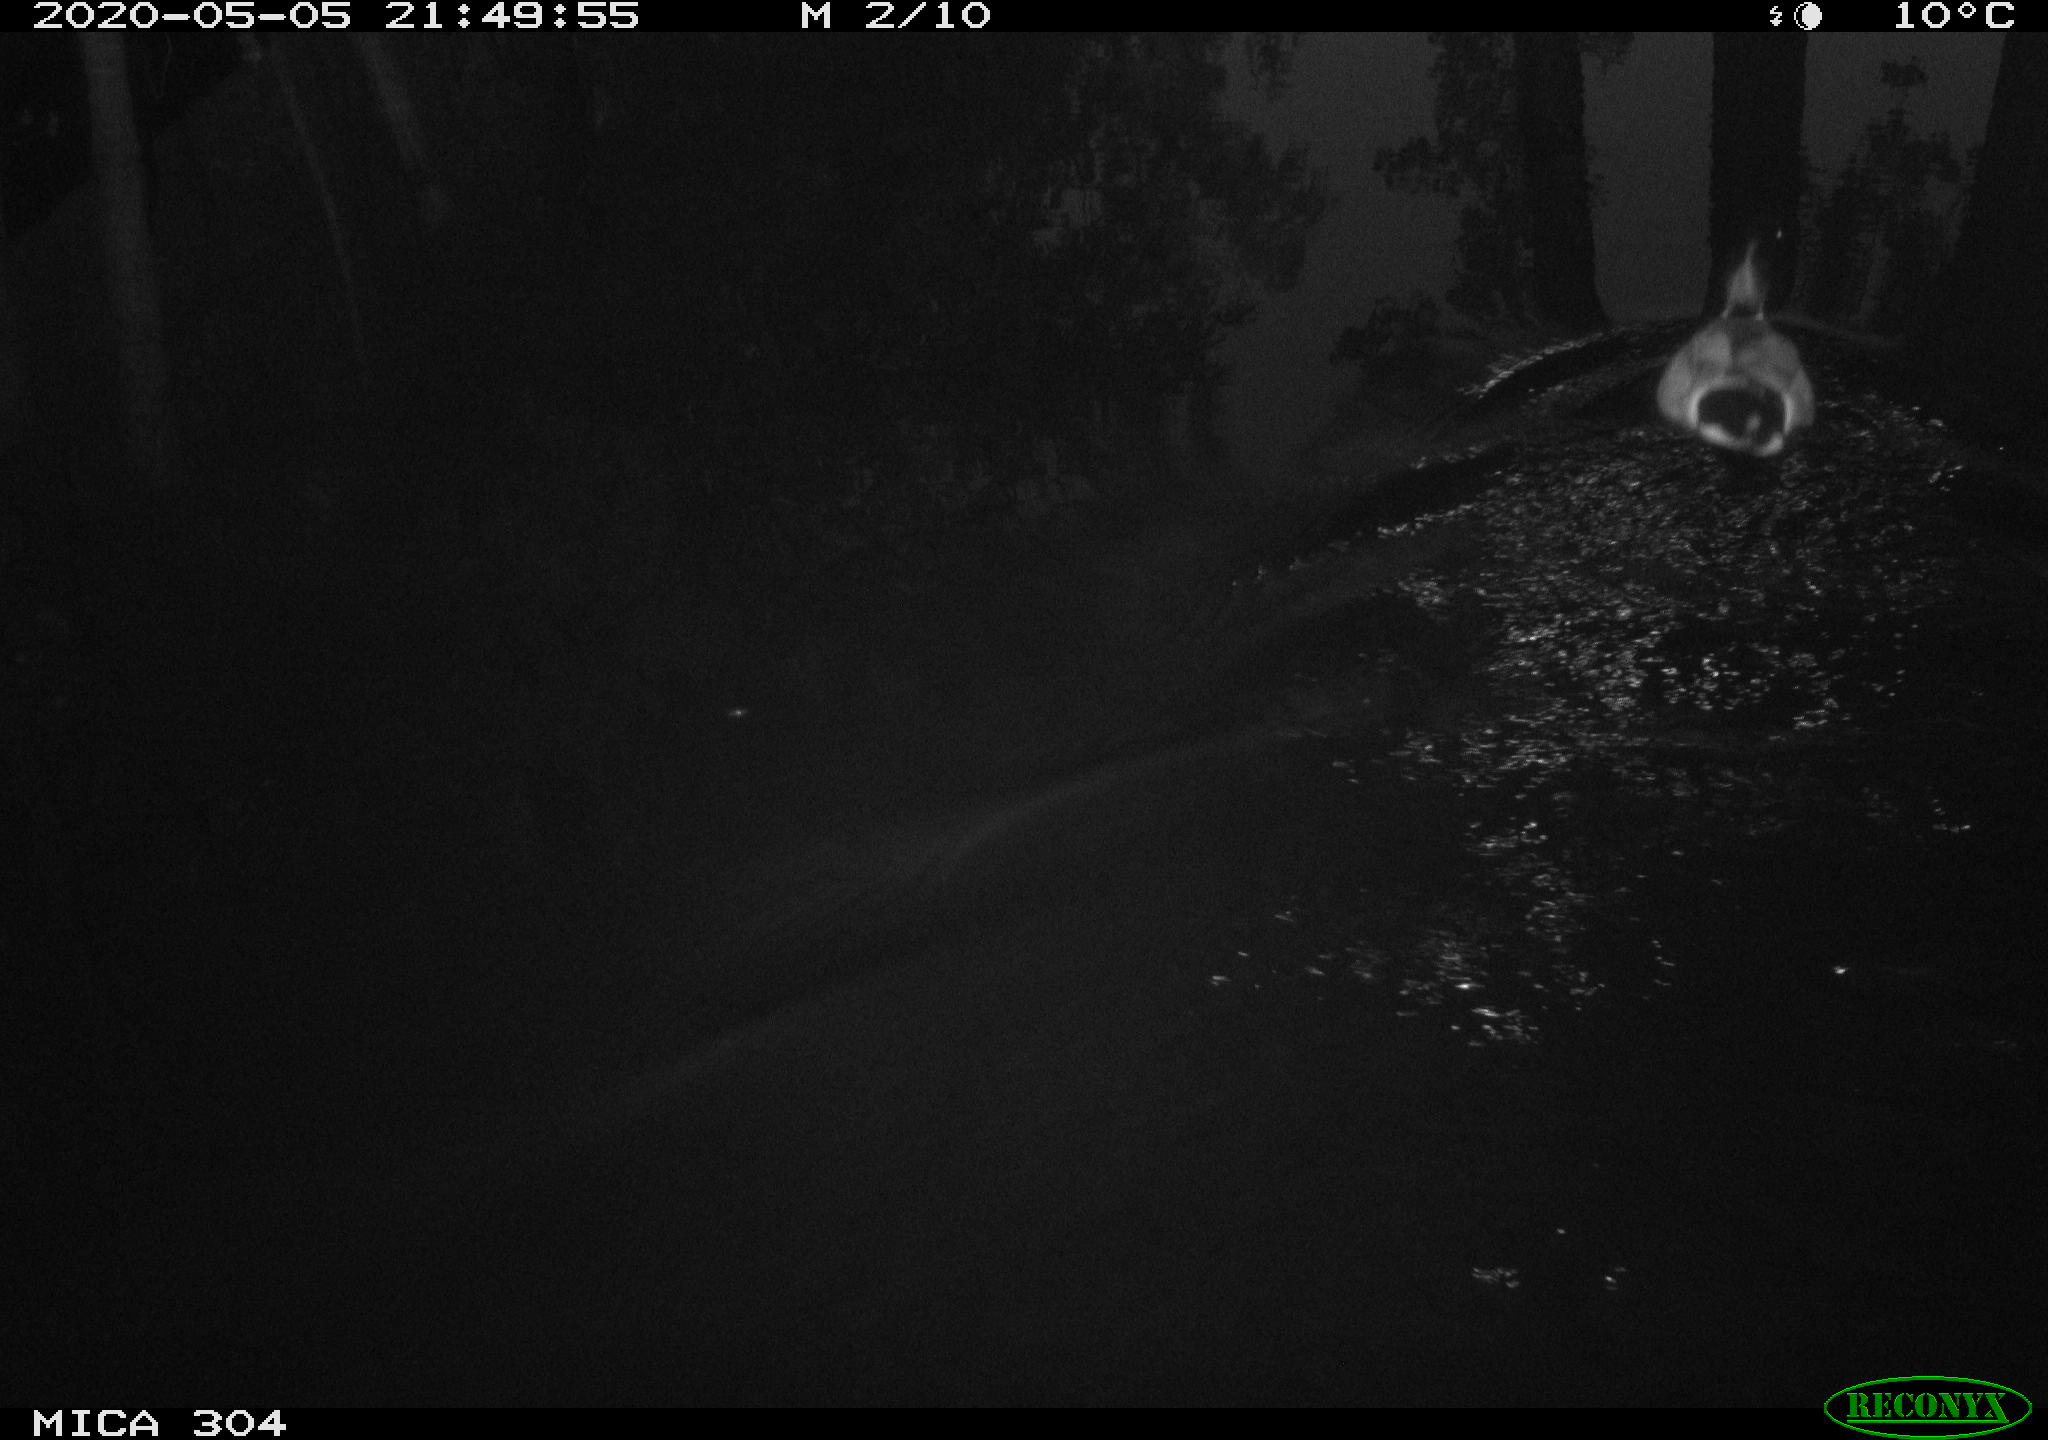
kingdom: Animalia
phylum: Chordata
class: Aves
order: Anseriformes
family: Anatidae
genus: Anas
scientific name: Anas platyrhynchos
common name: Mallard
